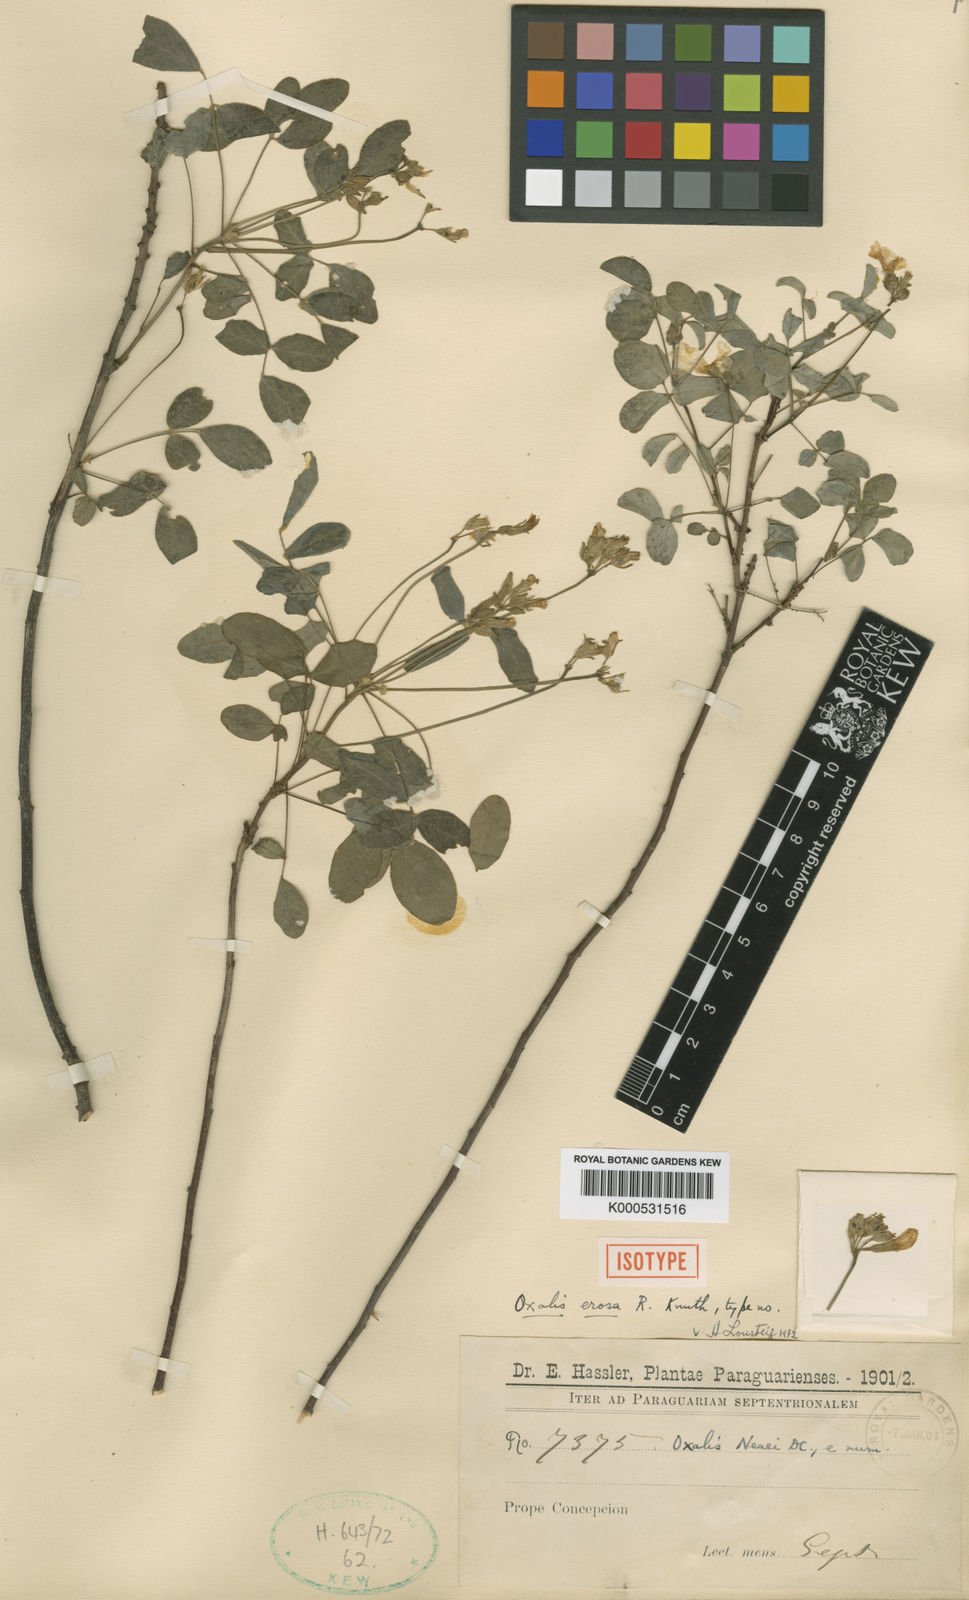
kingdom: Plantae
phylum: Tracheophyta
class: Magnoliopsida
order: Oxalidales
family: Oxalidaceae
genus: Oxalis
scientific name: Oxalis erosa
